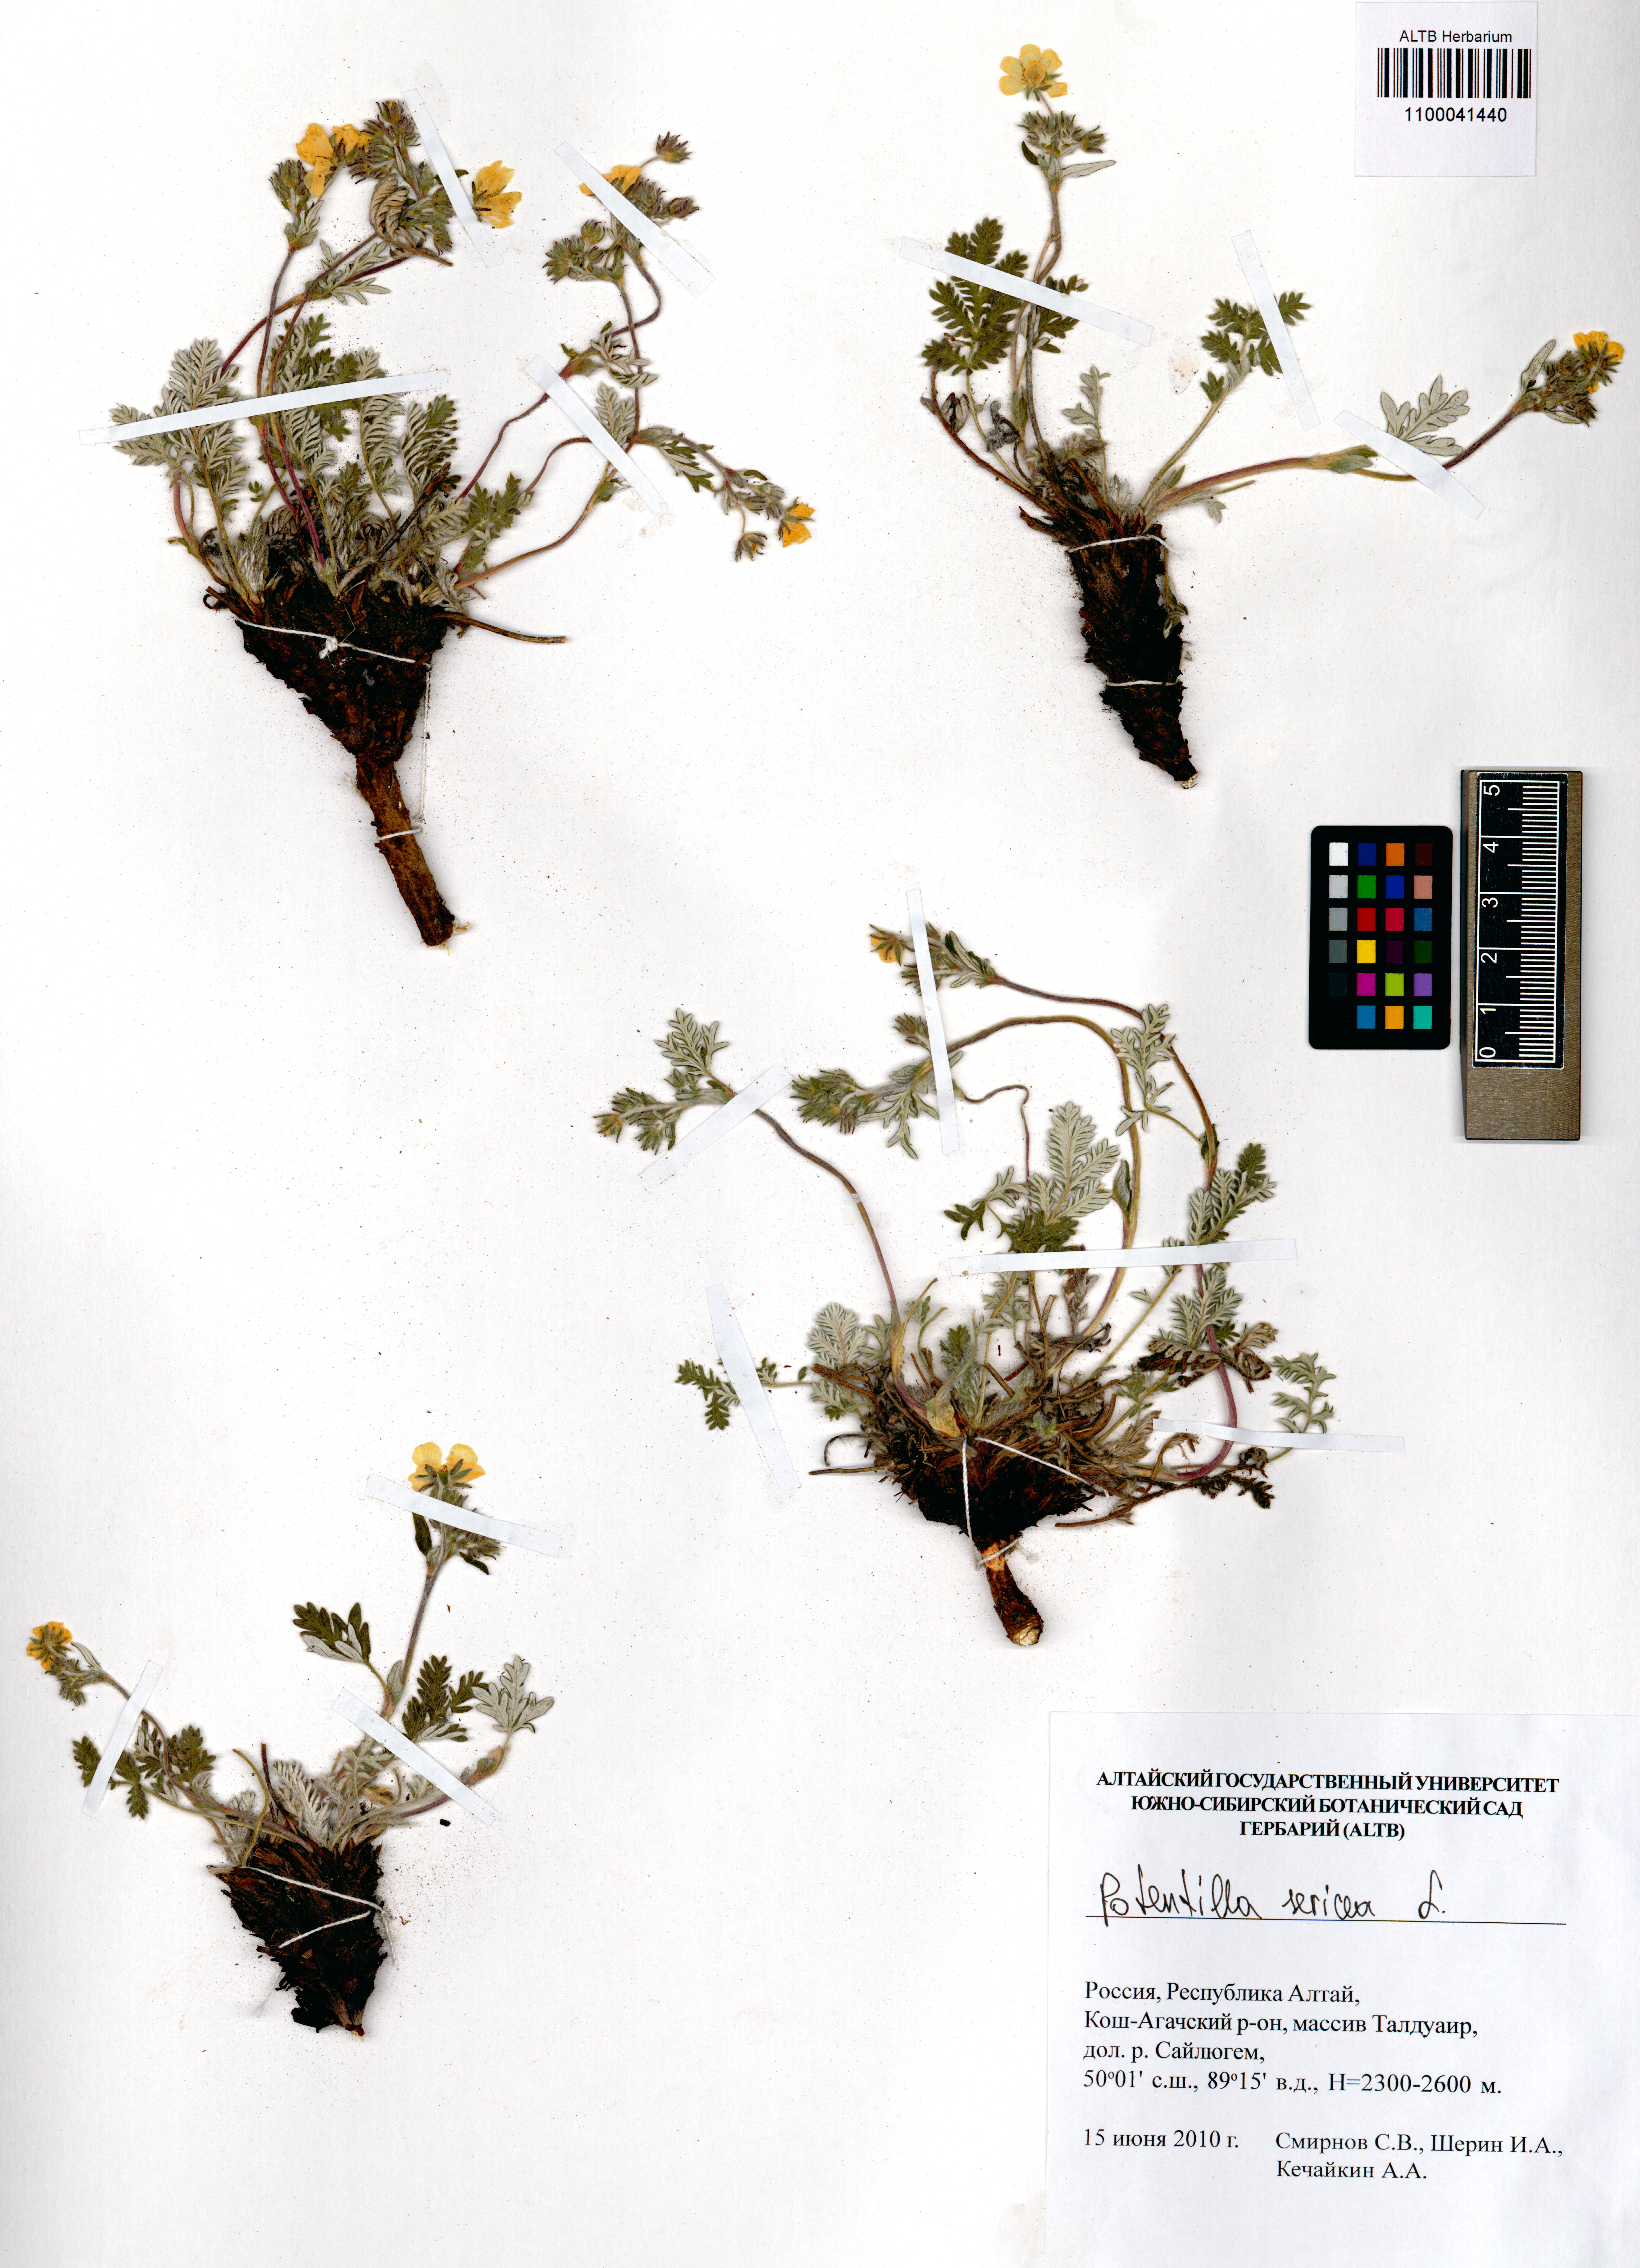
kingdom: Plantae
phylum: Tracheophyta
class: Magnoliopsida
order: Rosales
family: Rosaceae
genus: Potentilla
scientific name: Potentilla sericea
